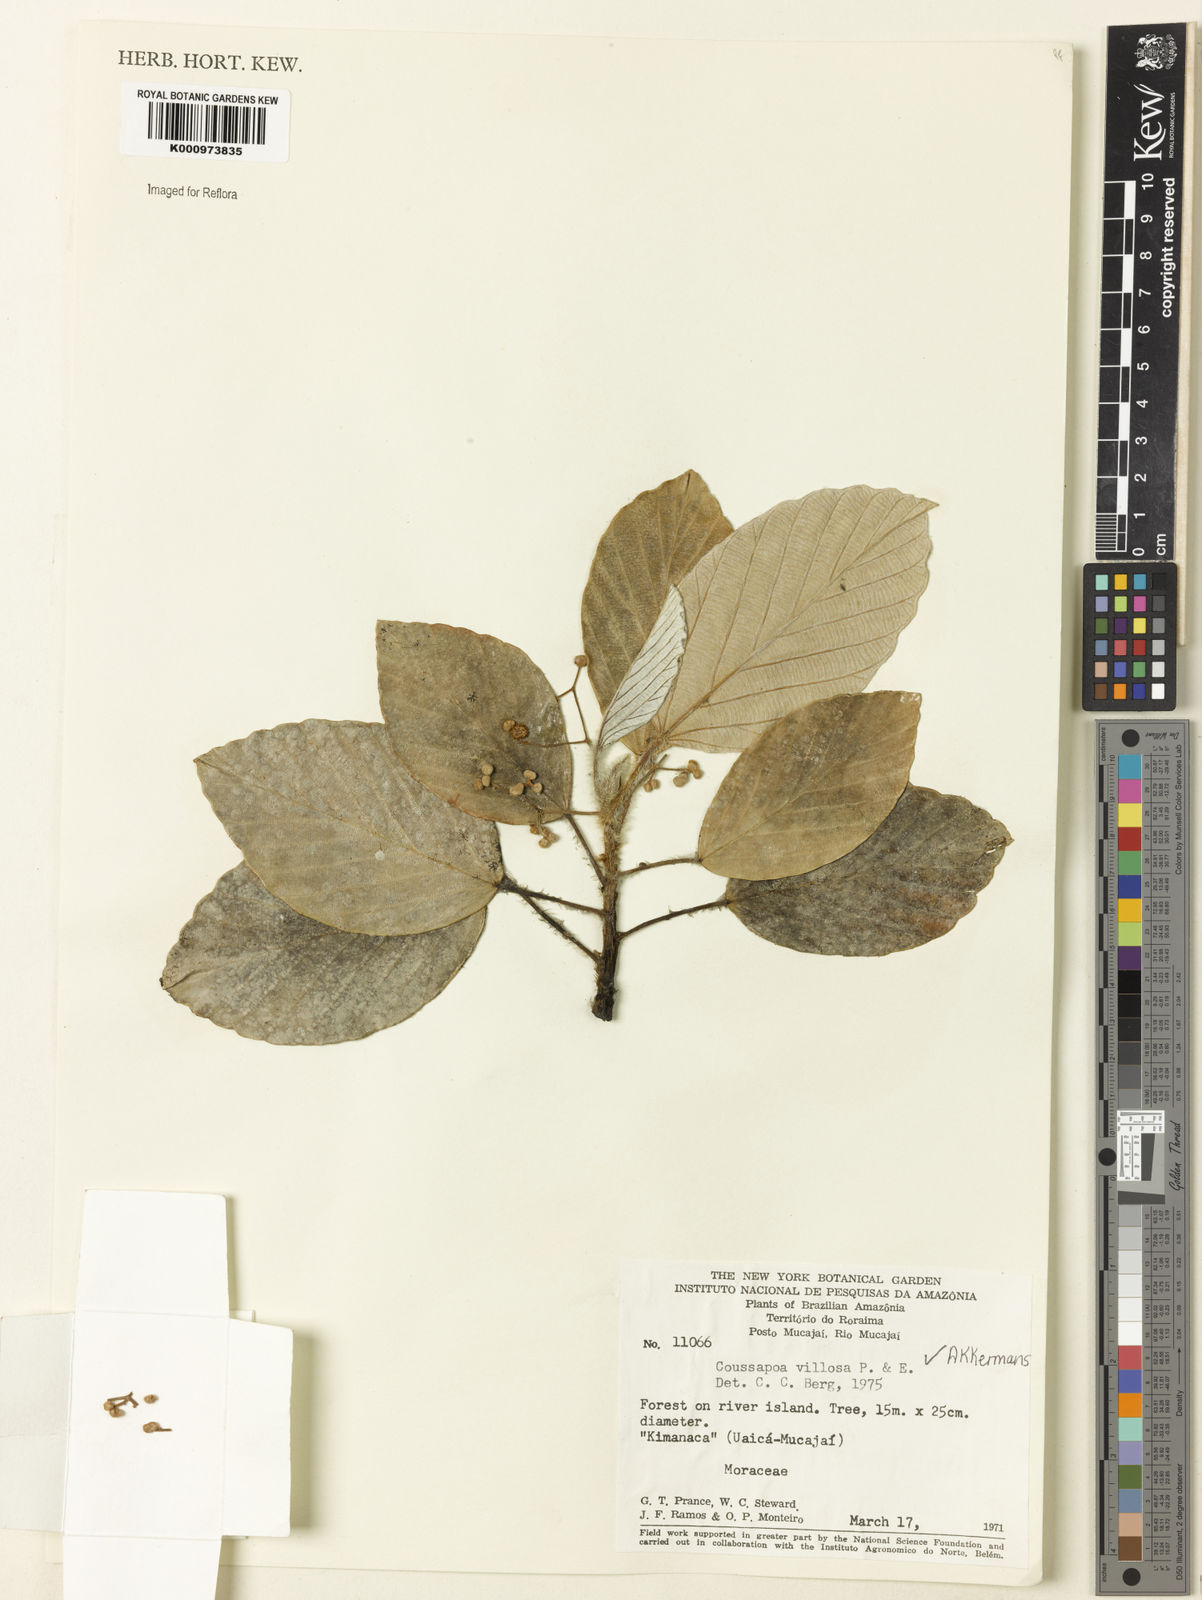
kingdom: Plantae
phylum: Tracheophyta
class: Magnoliopsida
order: Rosales
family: Urticaceae
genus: Coussapoa
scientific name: Coussapoa villosa
